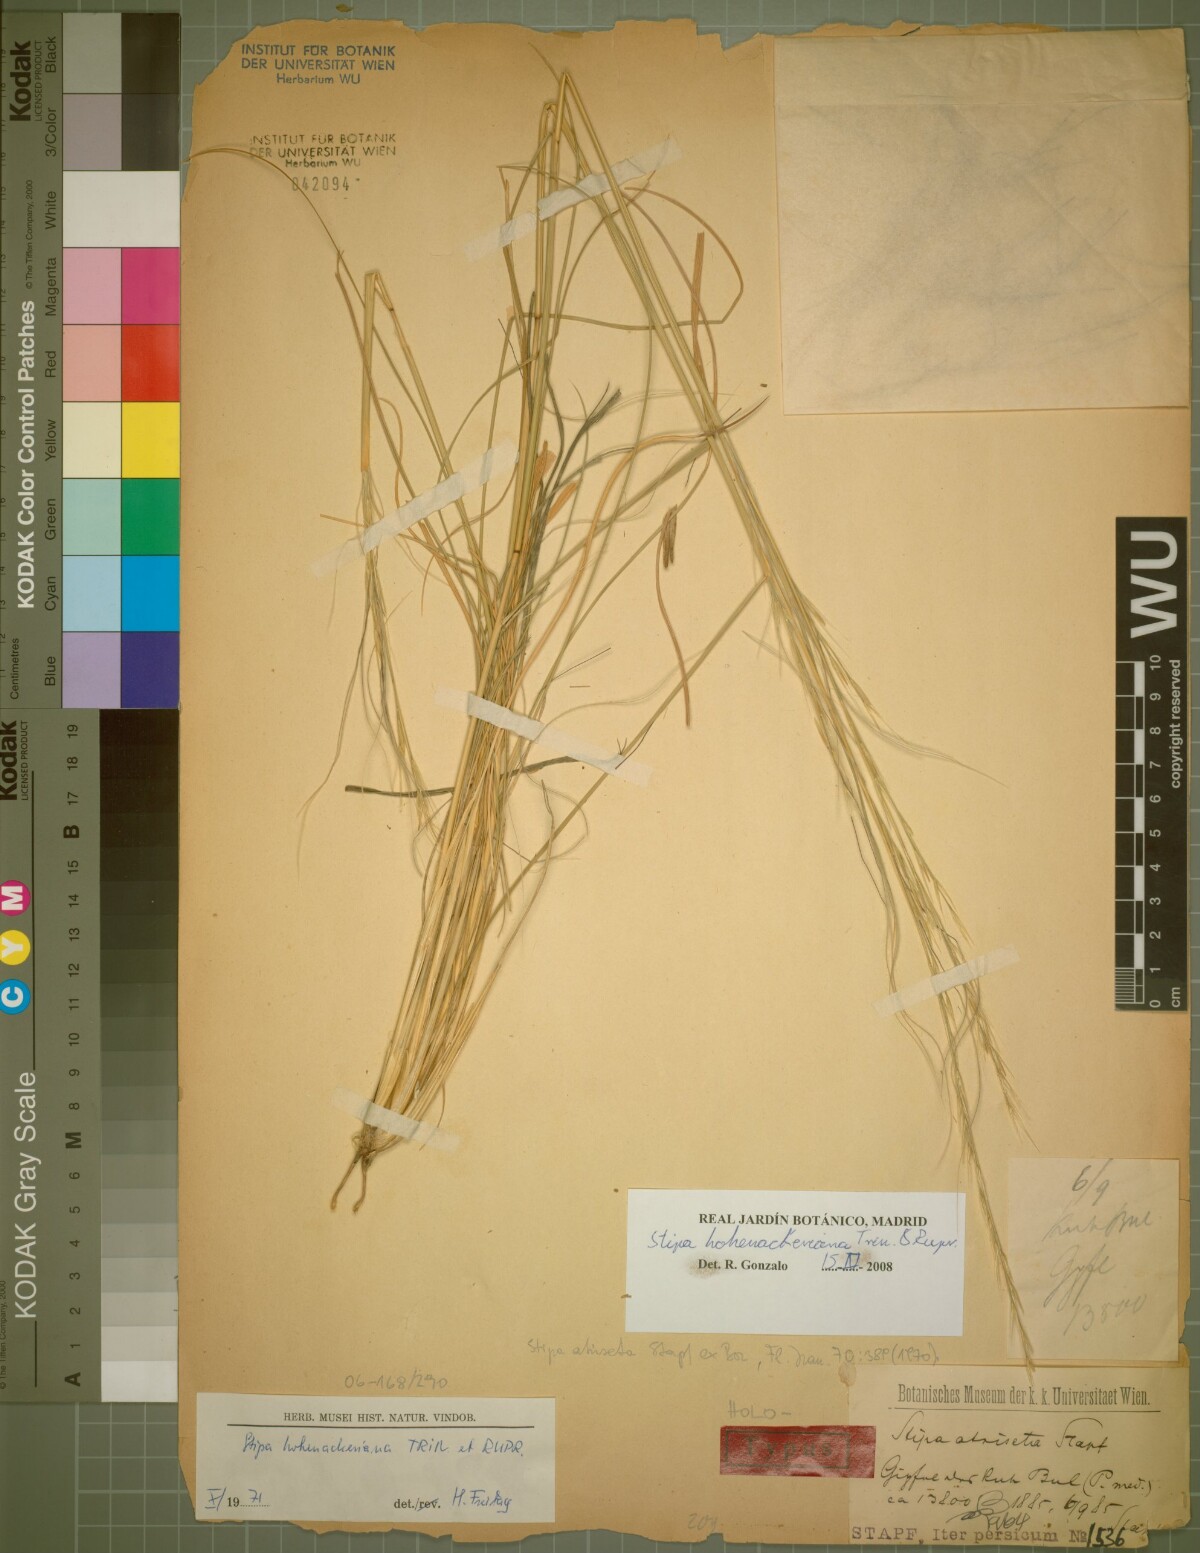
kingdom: Plantae
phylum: Tracheophyta
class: Liliopsida
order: Poales
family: Poaceae
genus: Stipa
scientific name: Stipa hohenackeriana
